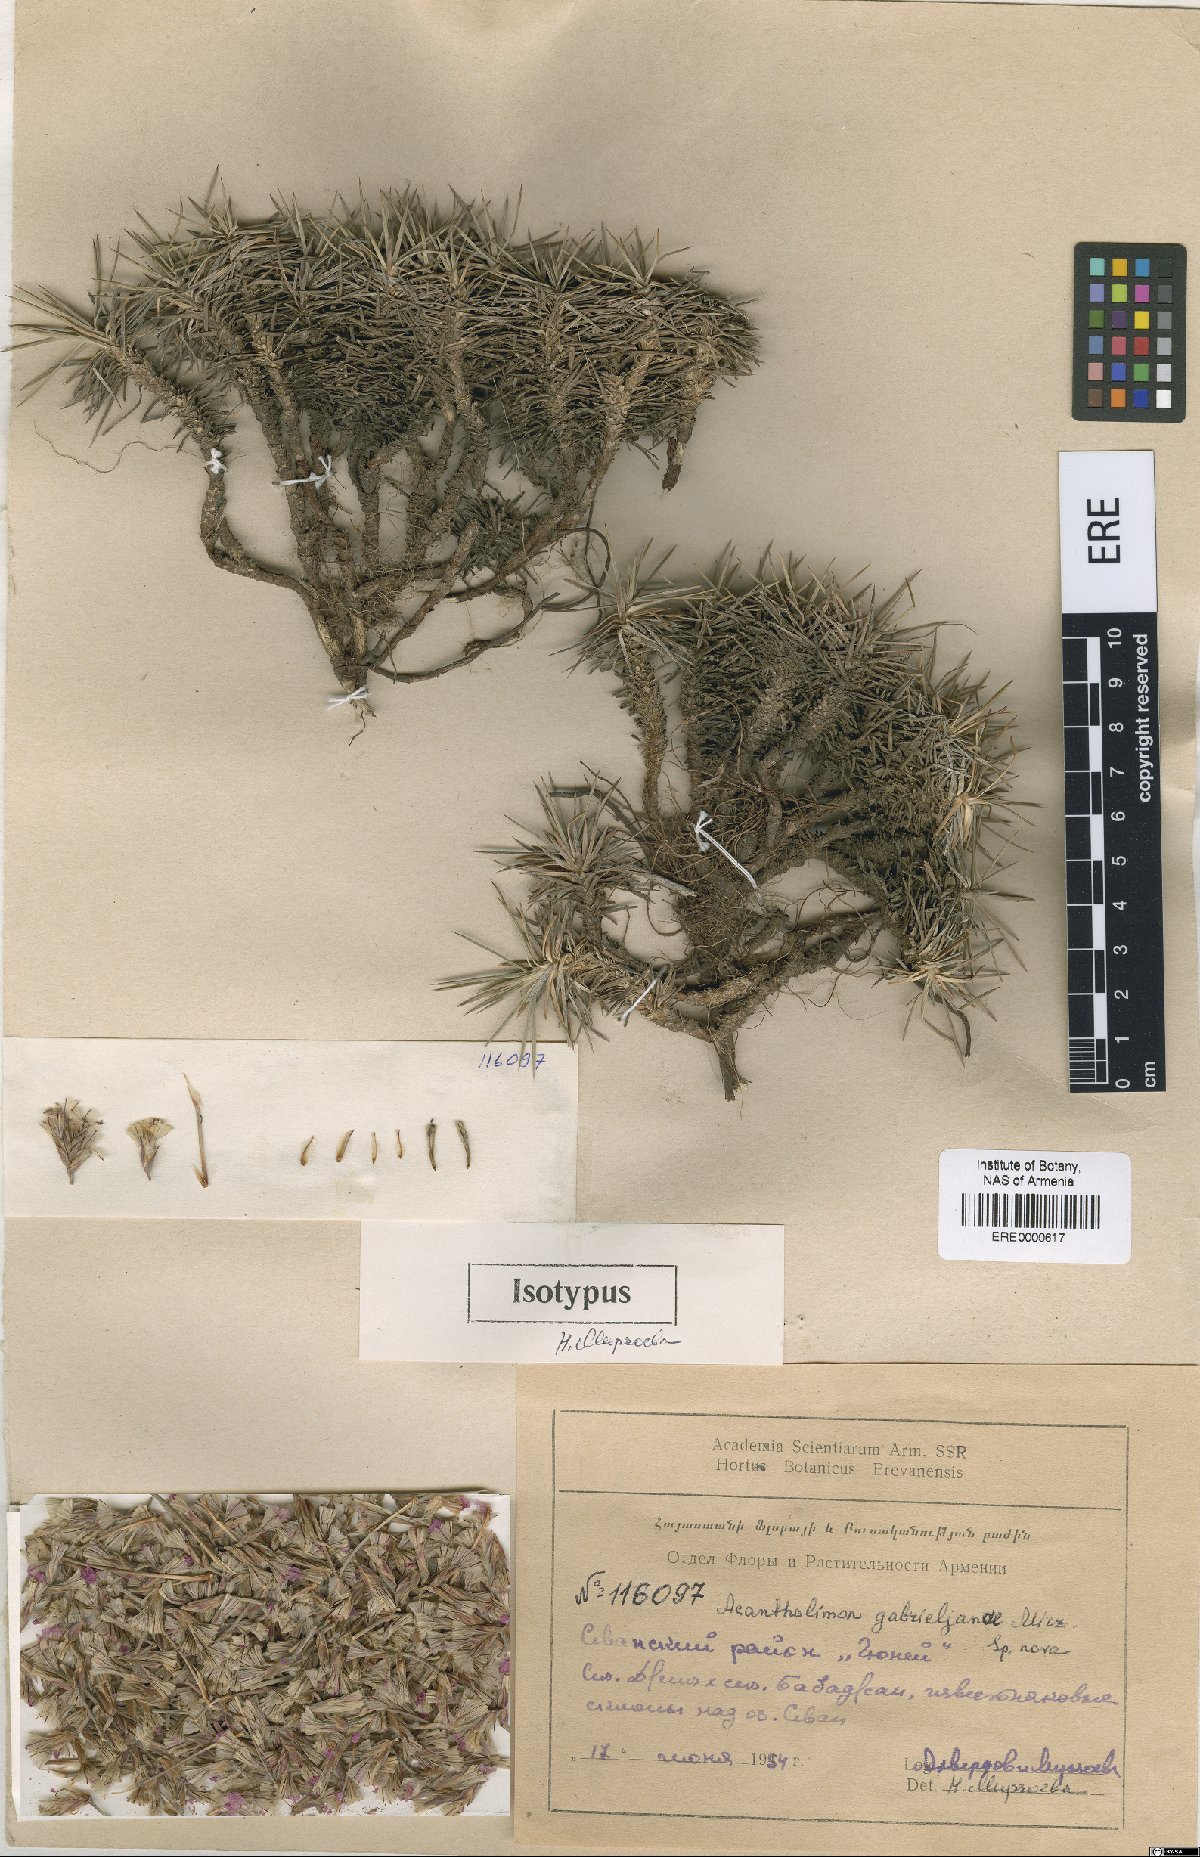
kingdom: Plantae
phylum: Tracheophyta
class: Magnoliopsida
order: Caryophyllales
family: Plumbaginaceae
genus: Acantholimon
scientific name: Acantholimon gabrieljaniae
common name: Gabrielyan's prickly-thrift
